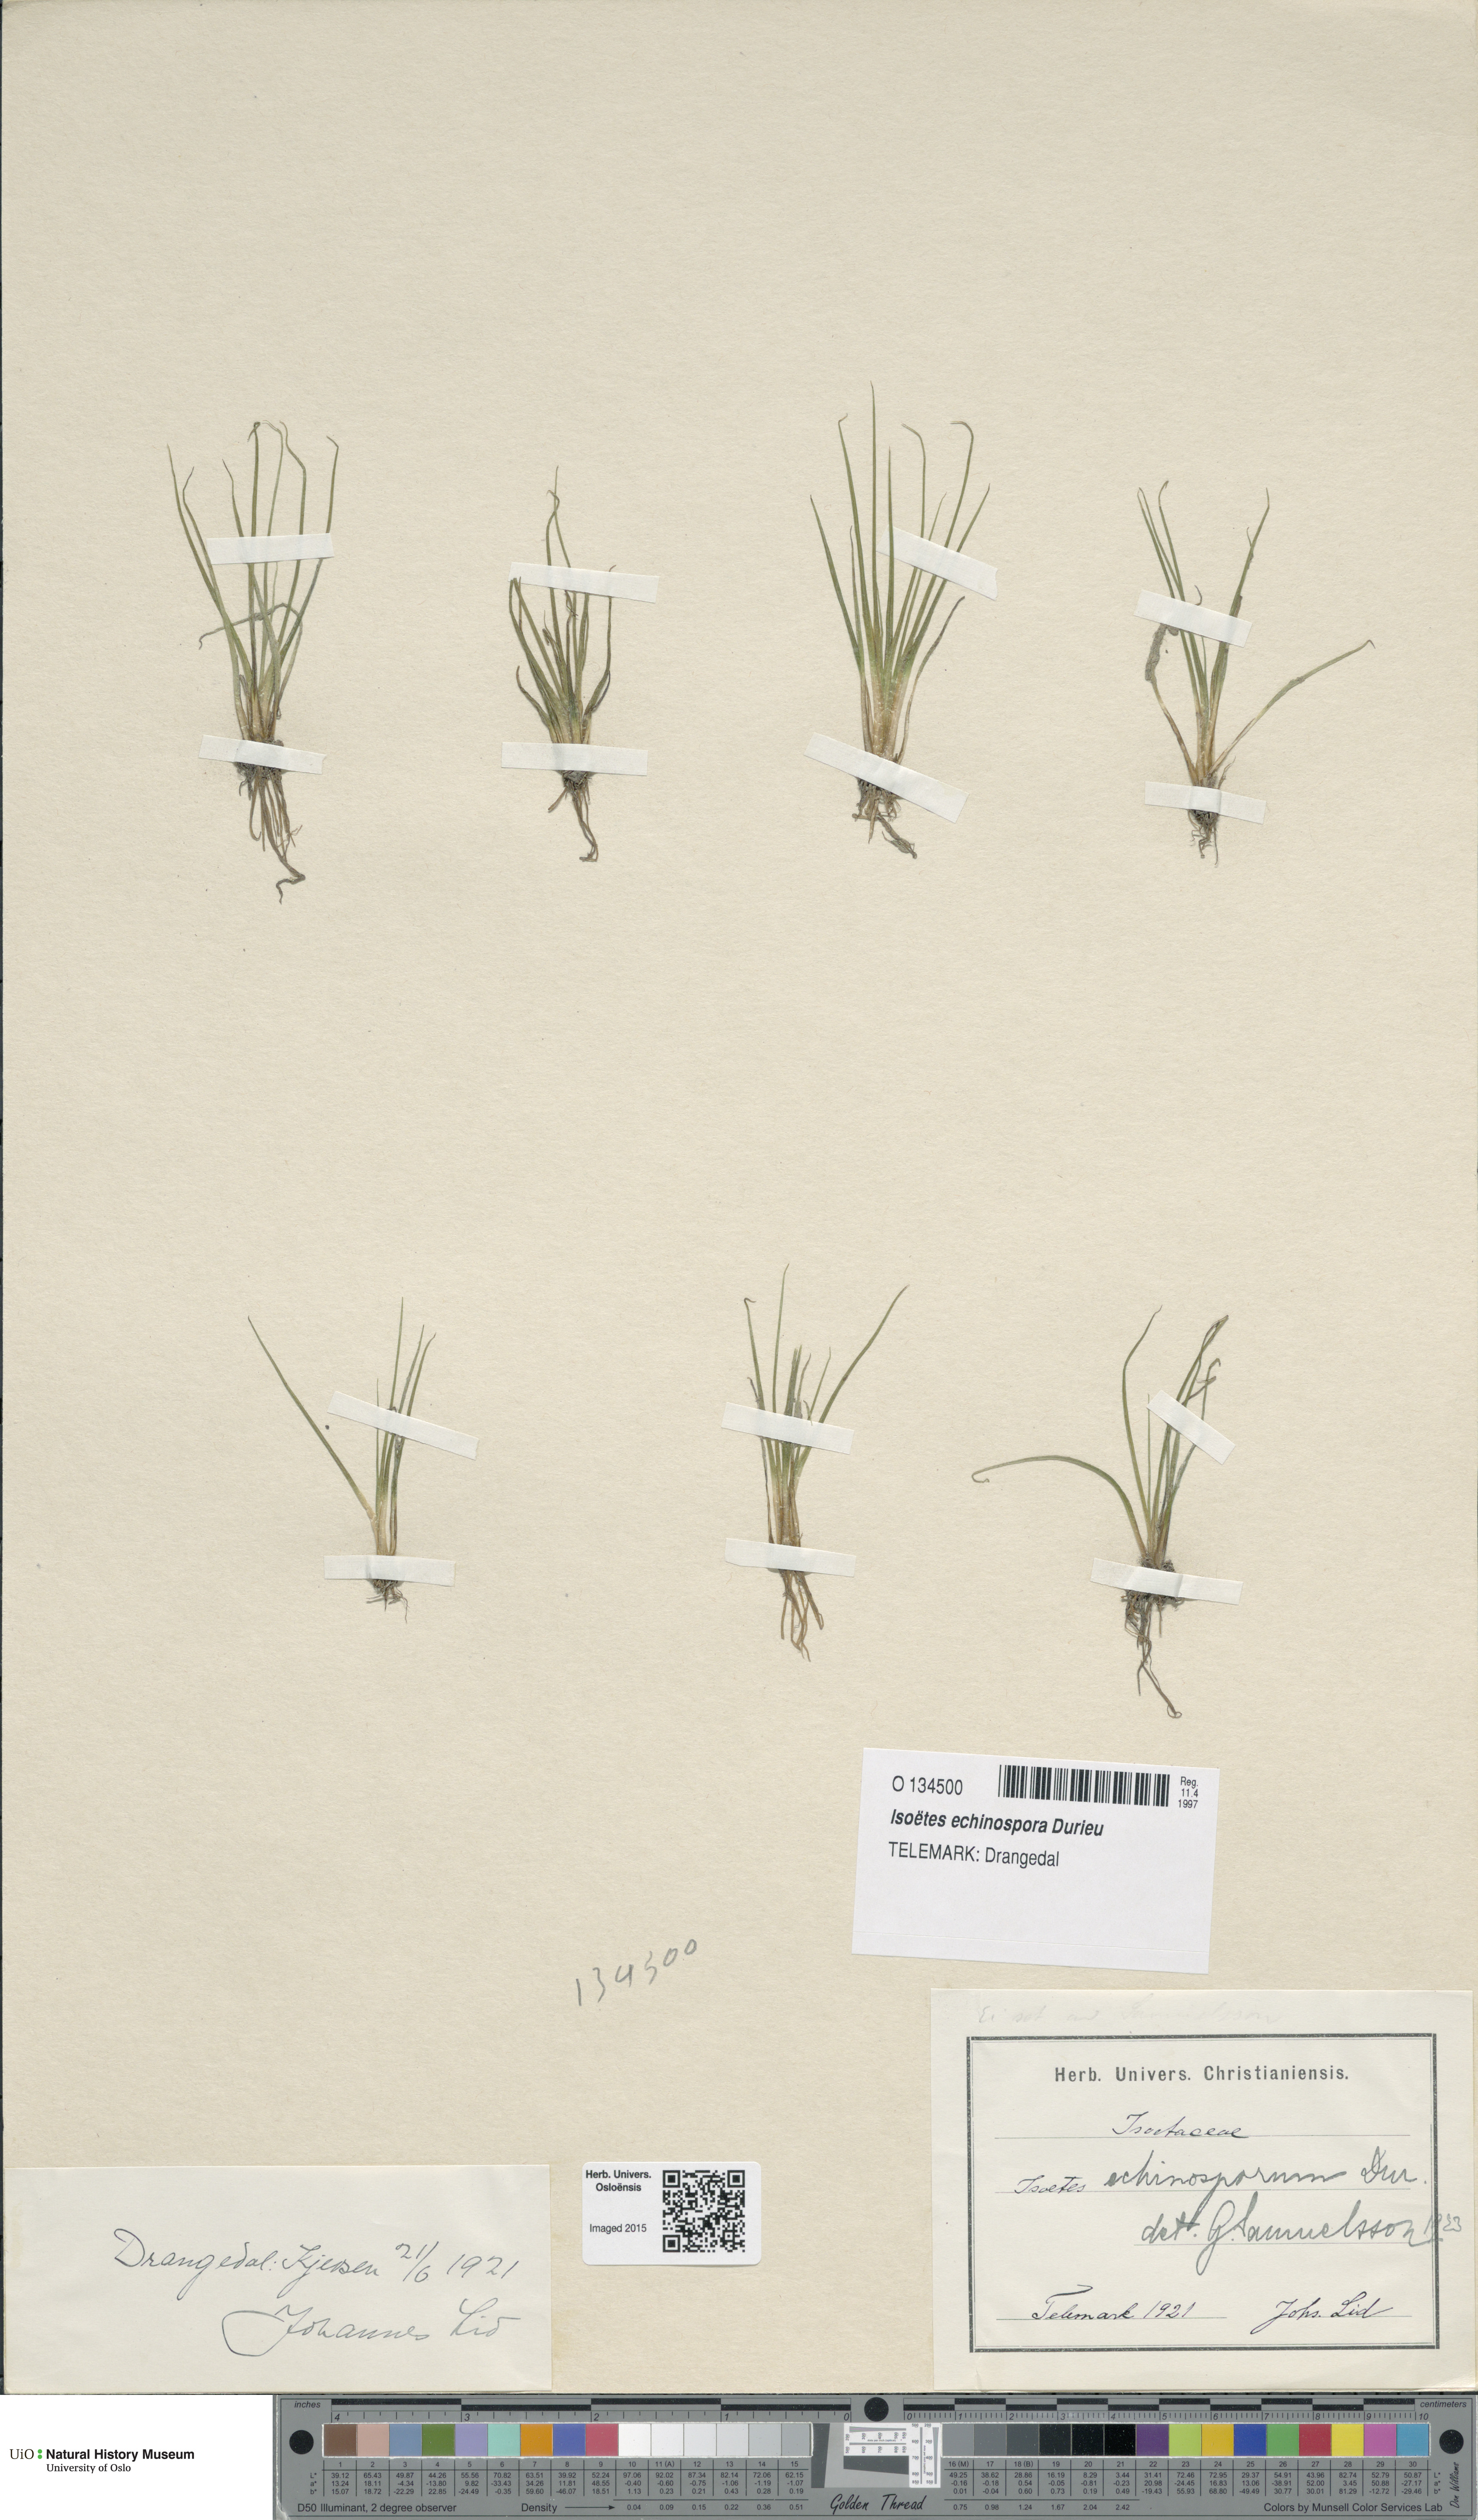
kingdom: Plantae
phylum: Tracheophyta
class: Lycopodiopsida
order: Isoetales
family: Isoetaceae
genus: Isoetes
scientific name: Isoetes echinospora
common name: Spring quillwort
